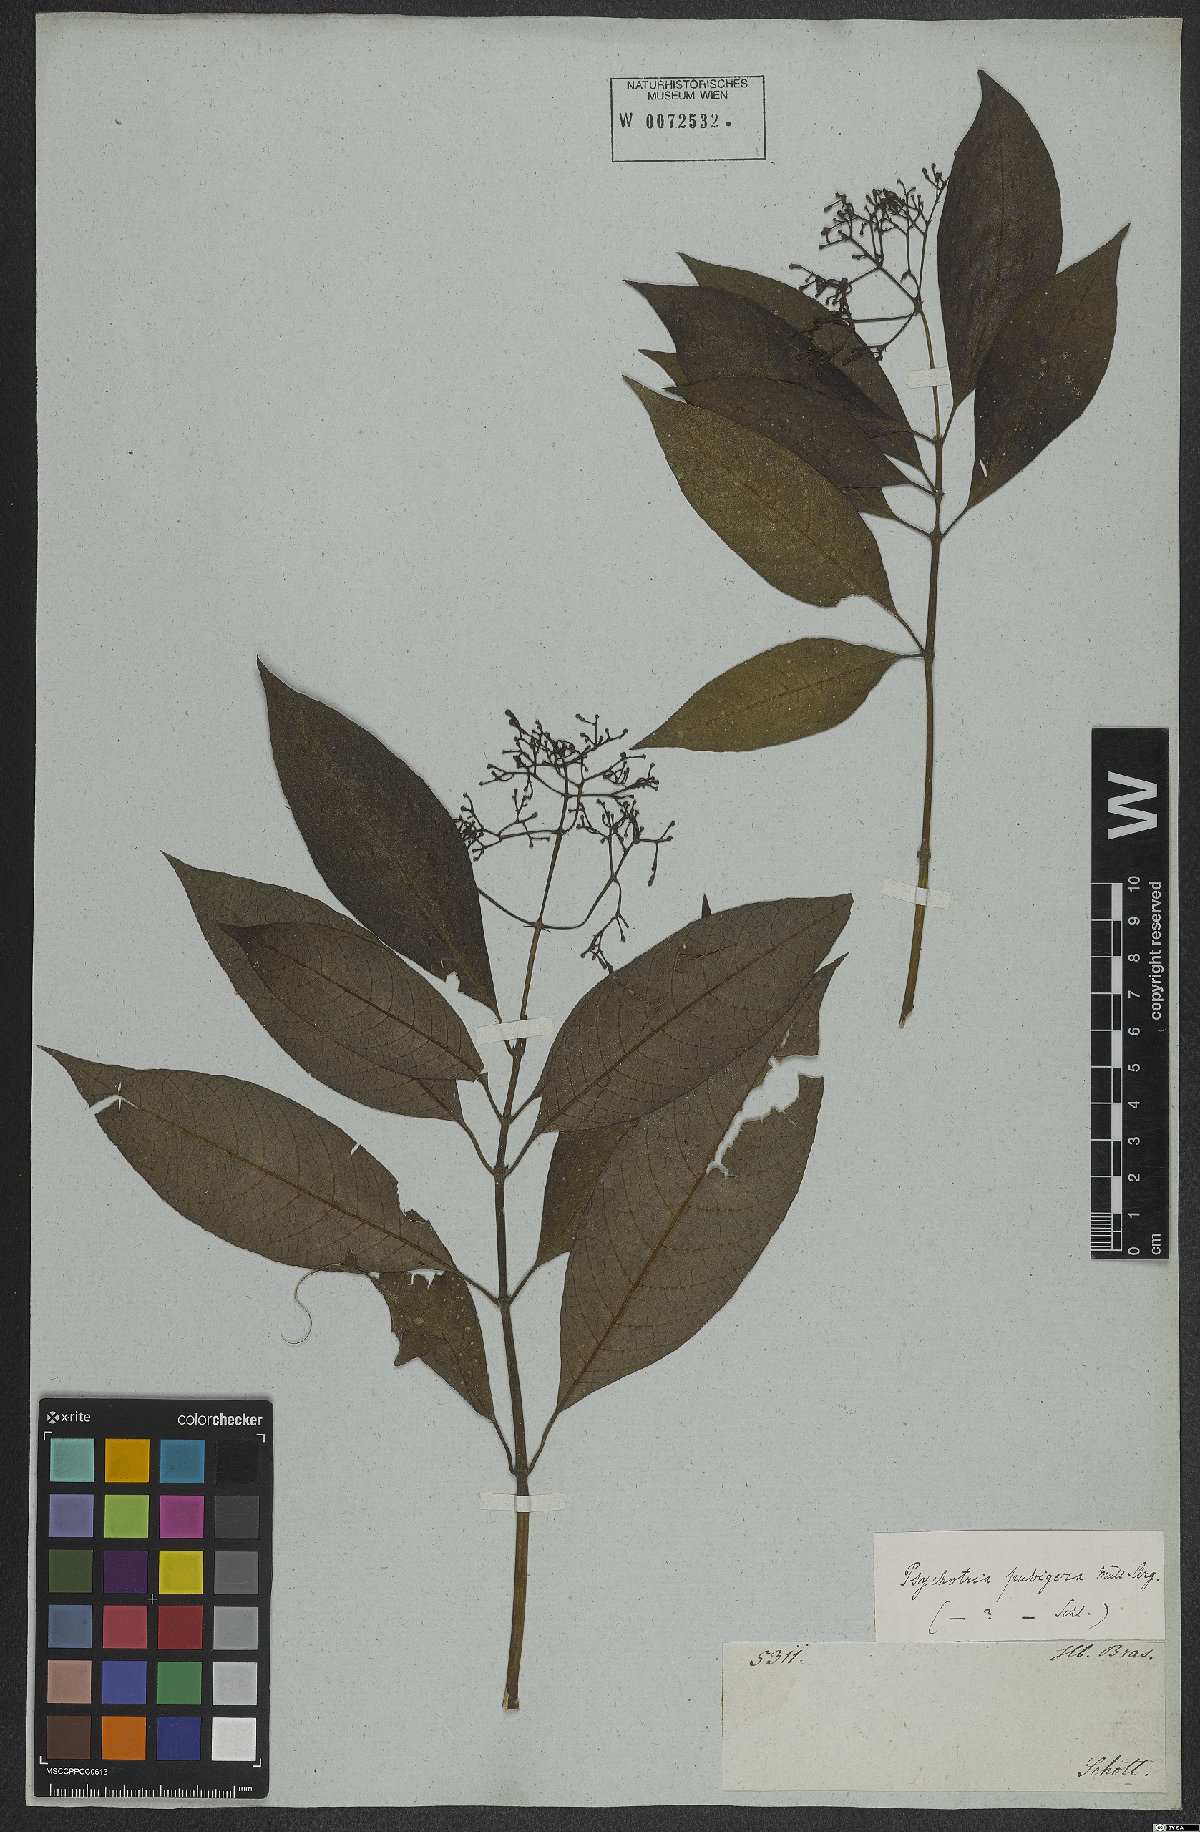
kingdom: Plantae
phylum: Tracheophyta
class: Magnoliopsida
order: Gentianales
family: Rubiaceae
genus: Psychotria
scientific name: Psychotria nemorosa
